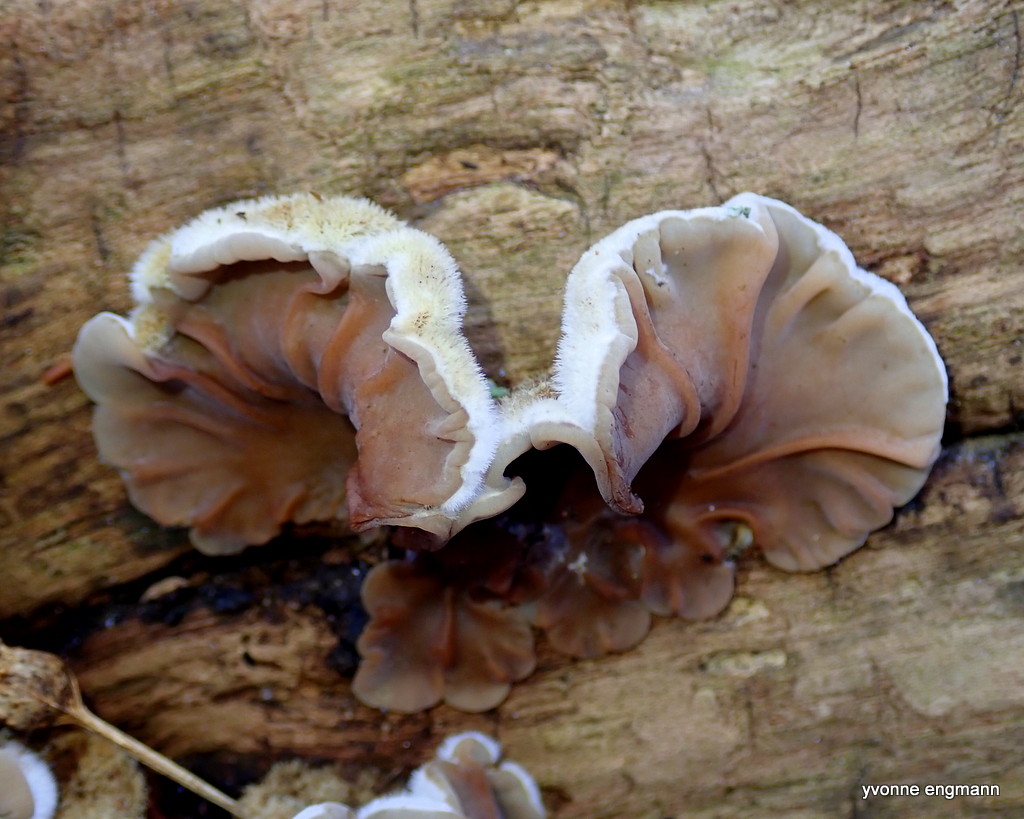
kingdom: Fungi
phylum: Basidiomycota
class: Agaricomycetes
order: Auriculariales
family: Auriculariaceae
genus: Auricularia
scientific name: Auricularia mesenterica
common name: håret judasøre
